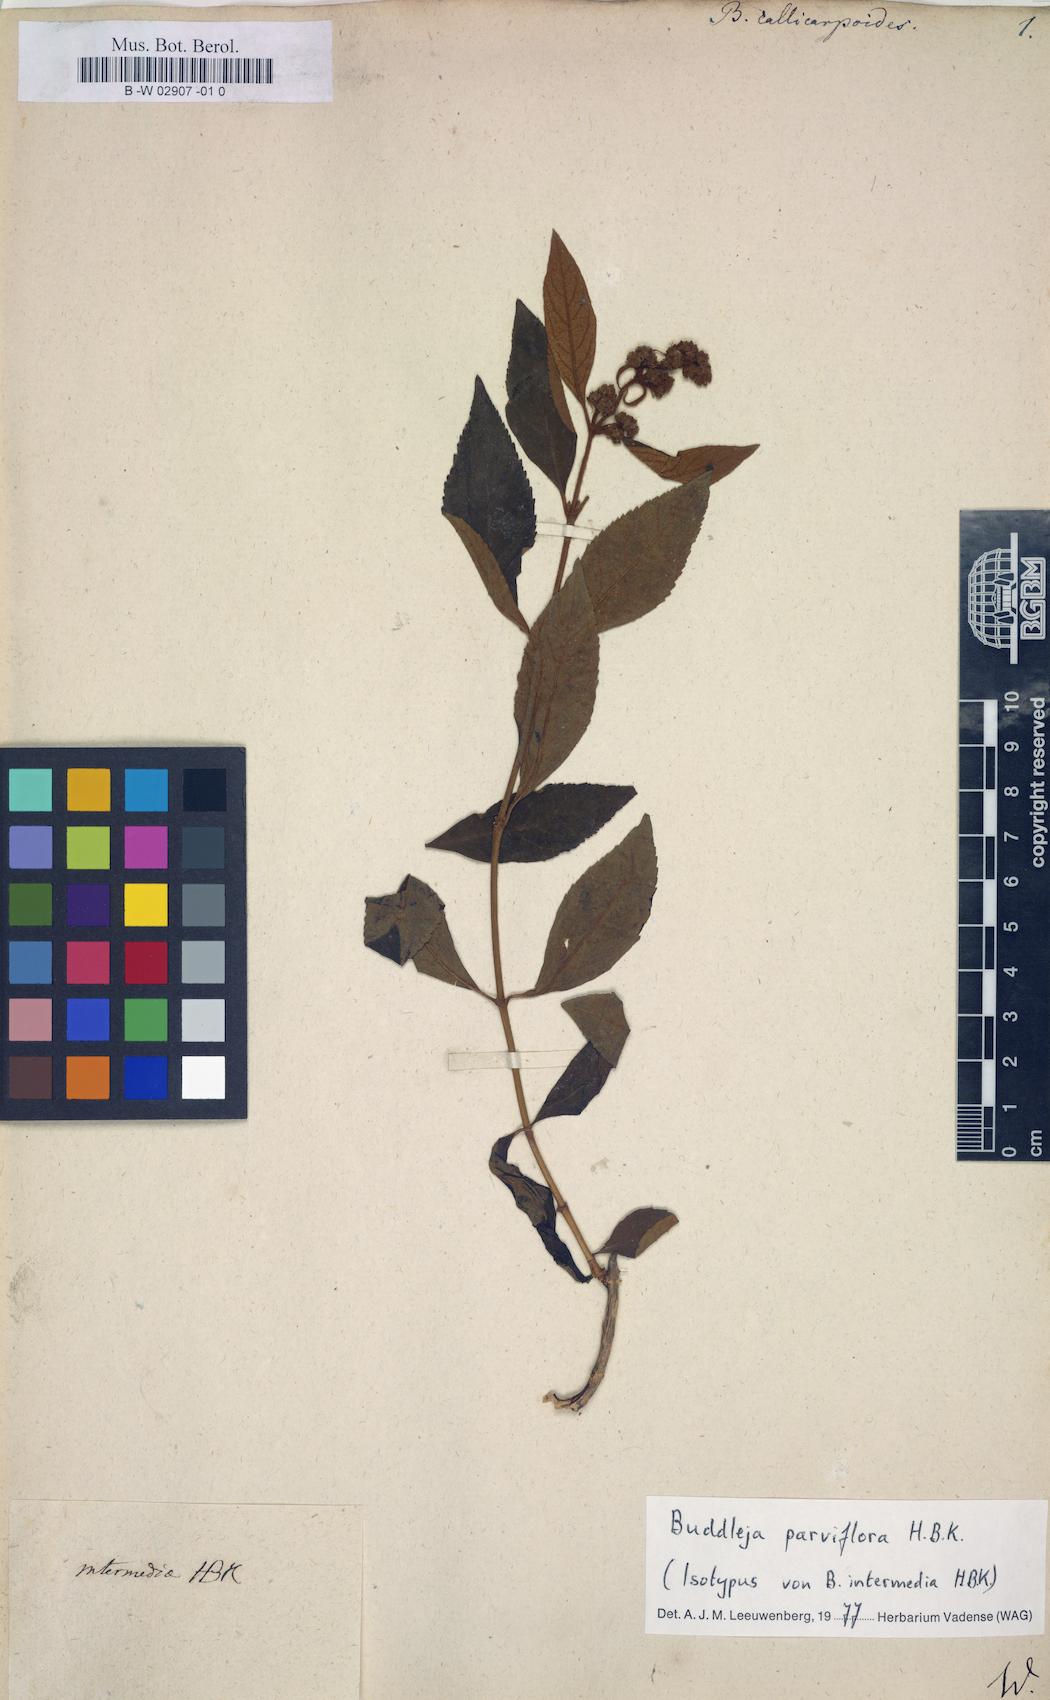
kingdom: Plantae
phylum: Tracheophyta
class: Magnoliopsida
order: Lamiales
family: Scrophulariaceae
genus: Buddleja
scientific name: Buddleja americana
